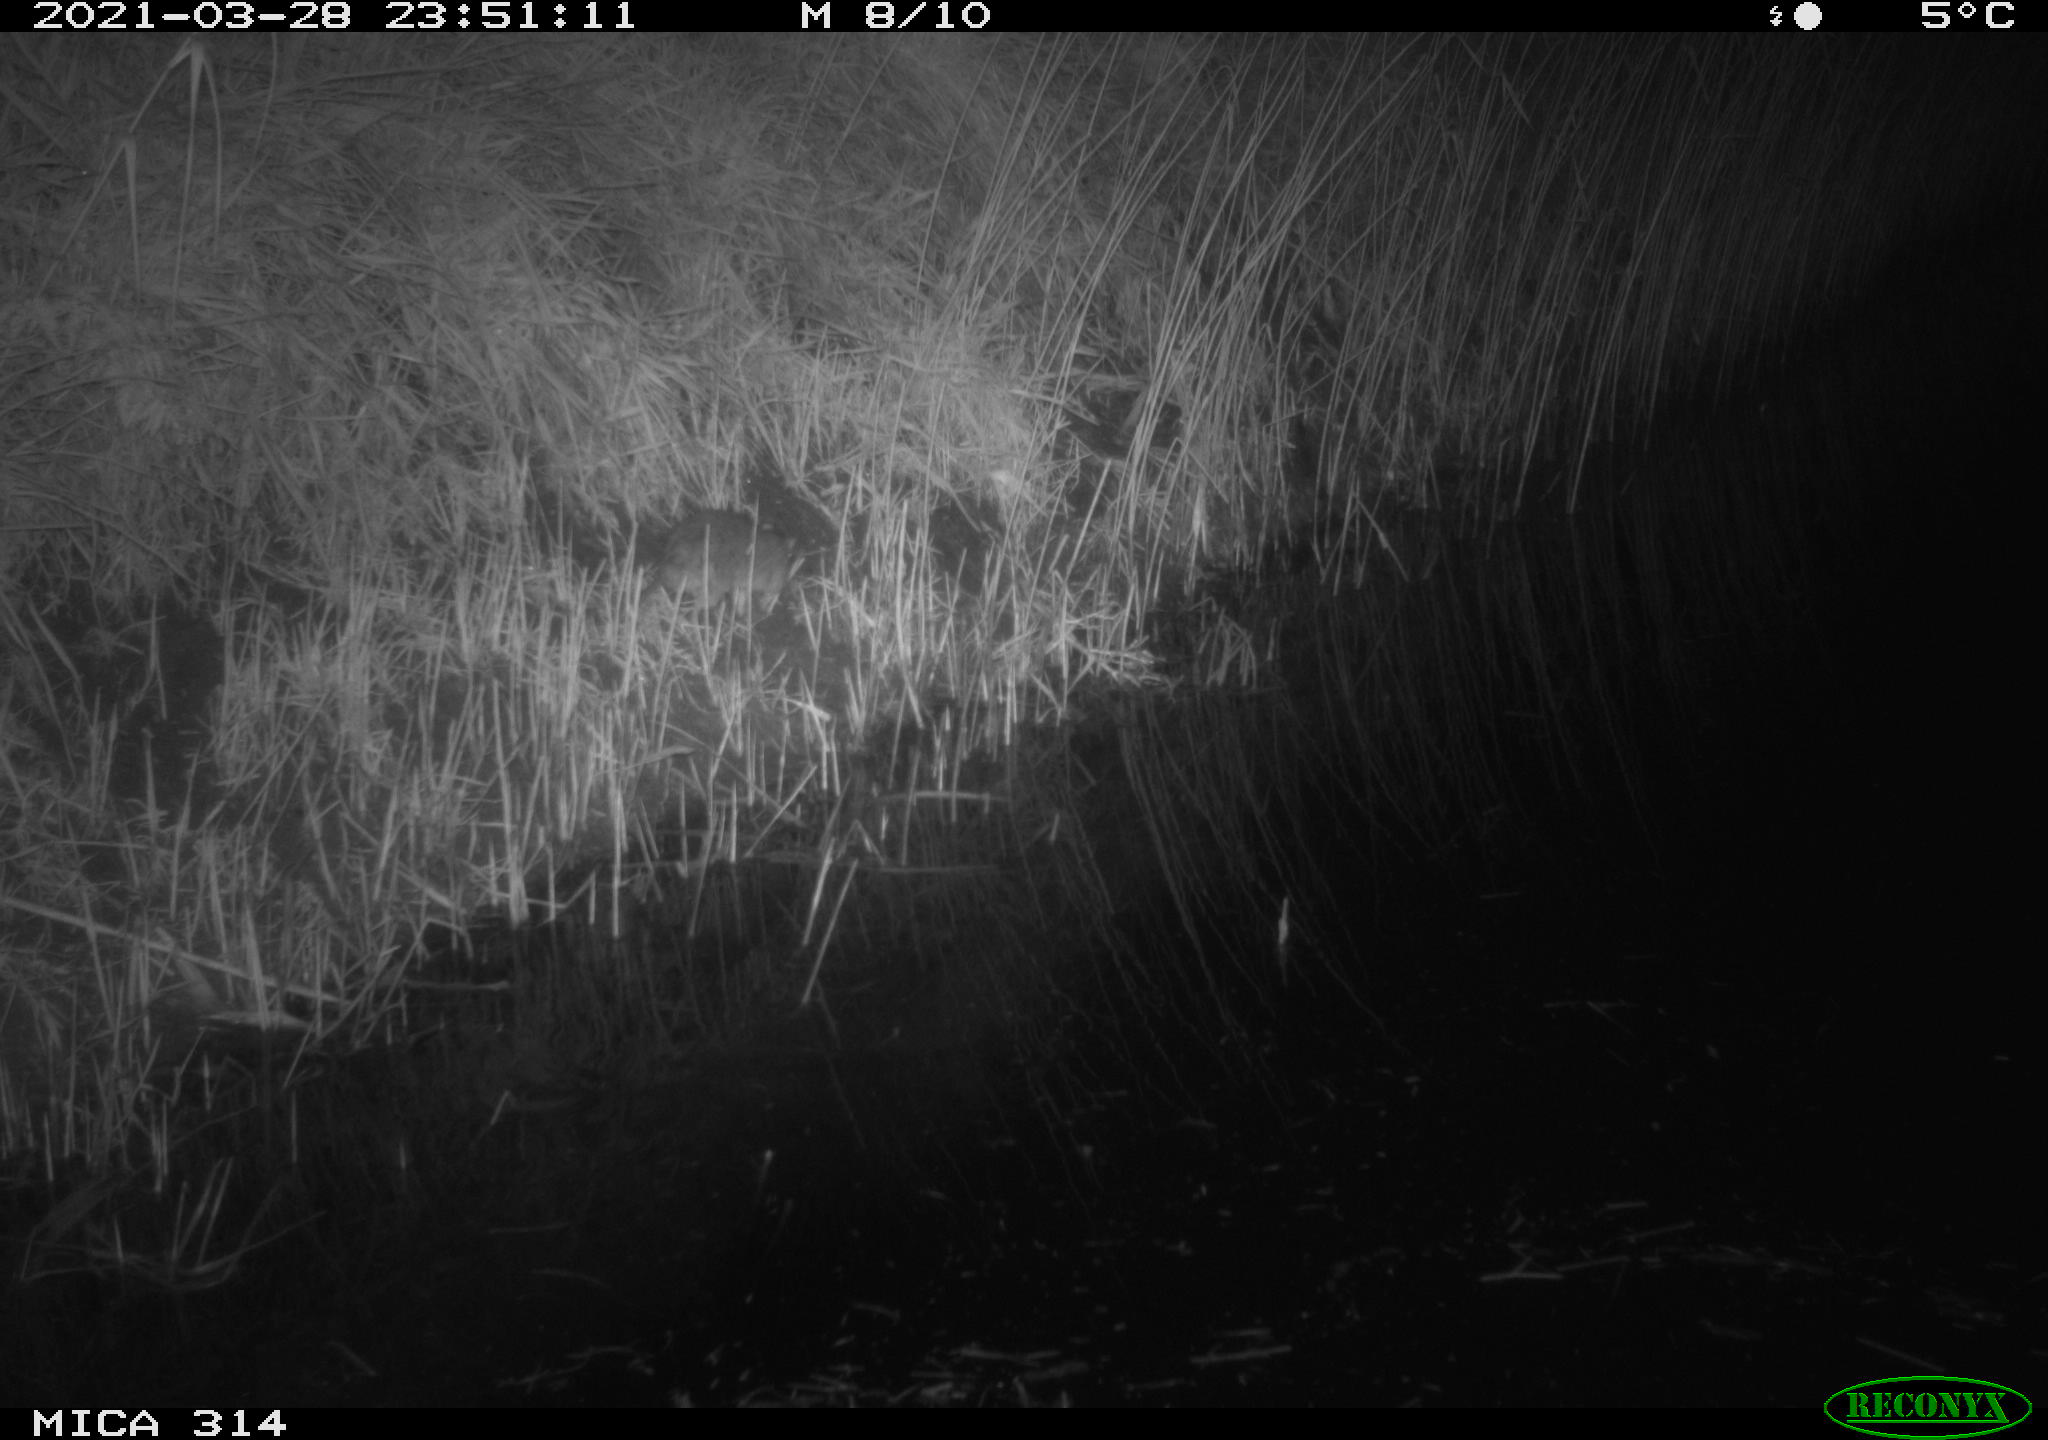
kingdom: Animalia
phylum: Chordata
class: Mammalia
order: Rodentia
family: Muridae
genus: Rattus
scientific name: Rattus norvegicus
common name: Brown rat
